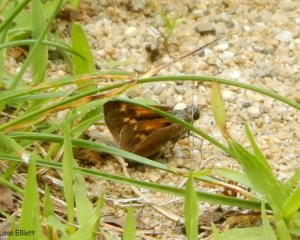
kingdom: Animalia
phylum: Arthropoda
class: Insecta
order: Lepidoptera
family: Hesperiidae
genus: Polites
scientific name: Polites coras
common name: Peck's Skipper
